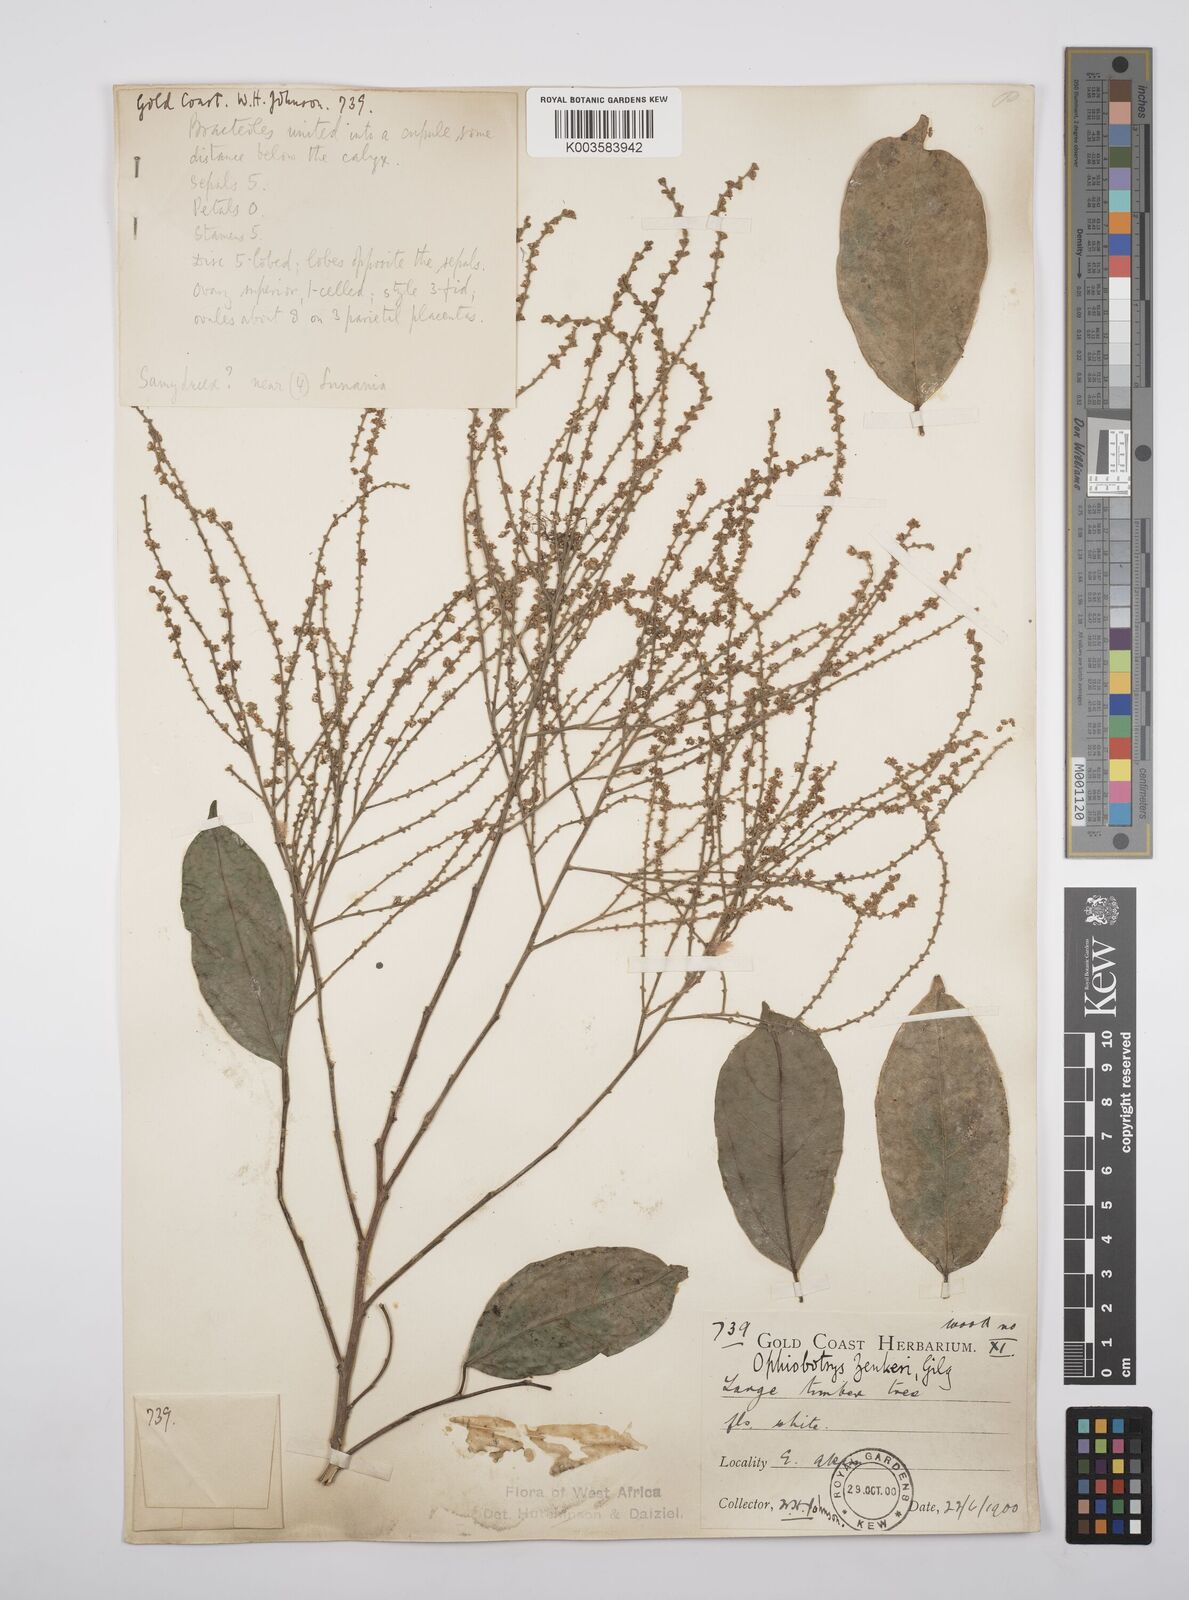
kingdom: Plantae
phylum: Tracheophyta
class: Magnoliopsida
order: Malpighiales
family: Salicaceae
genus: Ophiobotrys
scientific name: Ophiobotrys zenkeri
